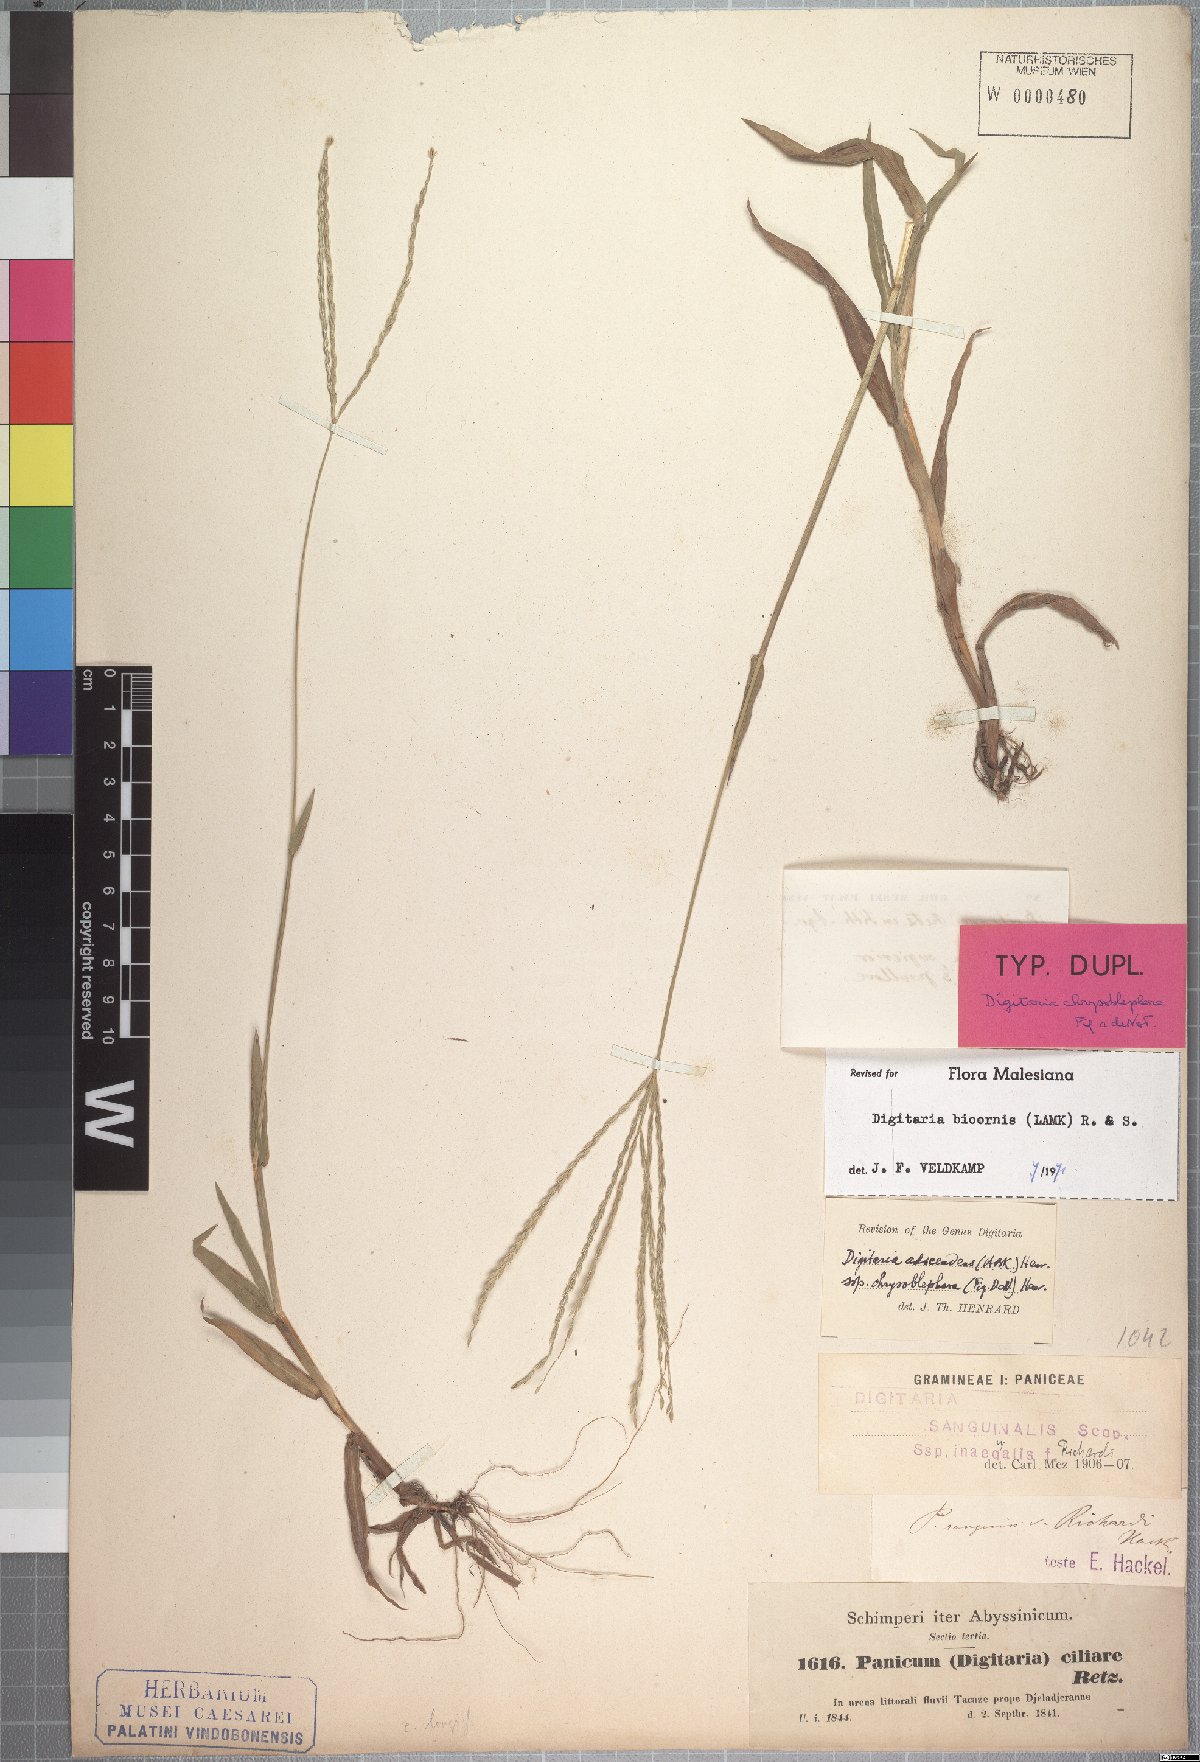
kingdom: Plantae
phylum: Tracheophyta
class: Liliopsida
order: Poales
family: Poaceae
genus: Digitaria
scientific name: Digitaria bicornis
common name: Asian crabgrass
